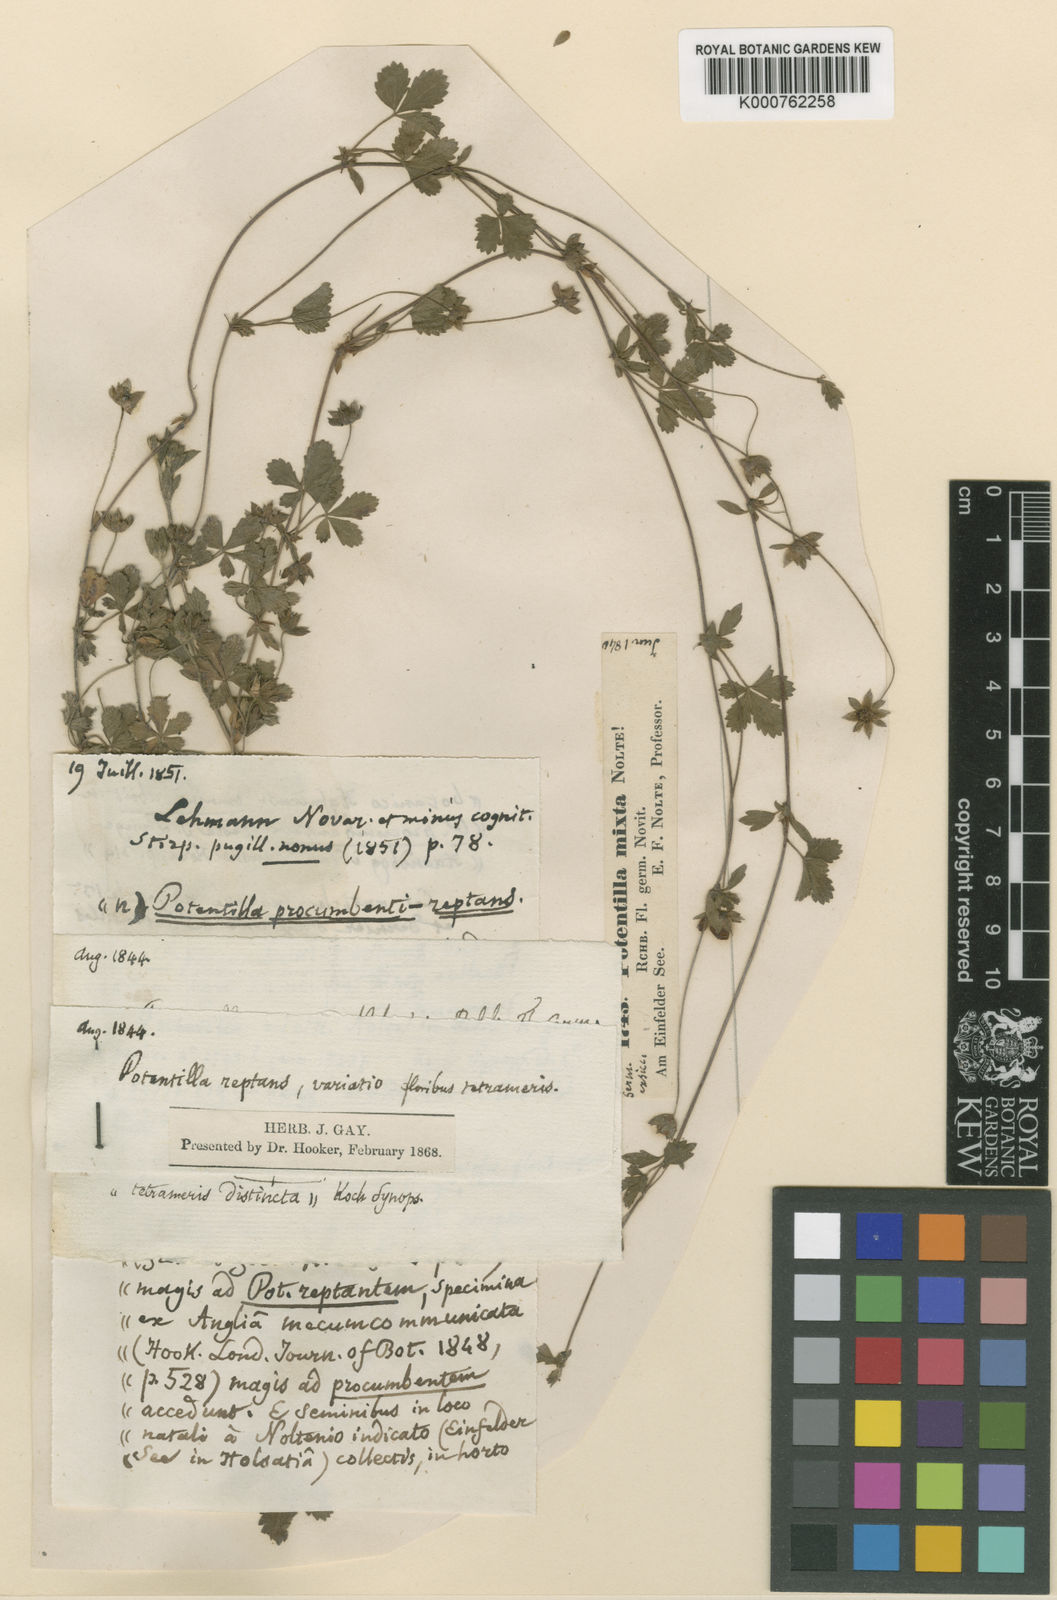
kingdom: Plantae
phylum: Tracheophyta
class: Magnoliopsida
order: Rosales
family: Rosaceae
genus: Potentilla
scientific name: Potentilla reptans
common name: Creeping cinquefoil
